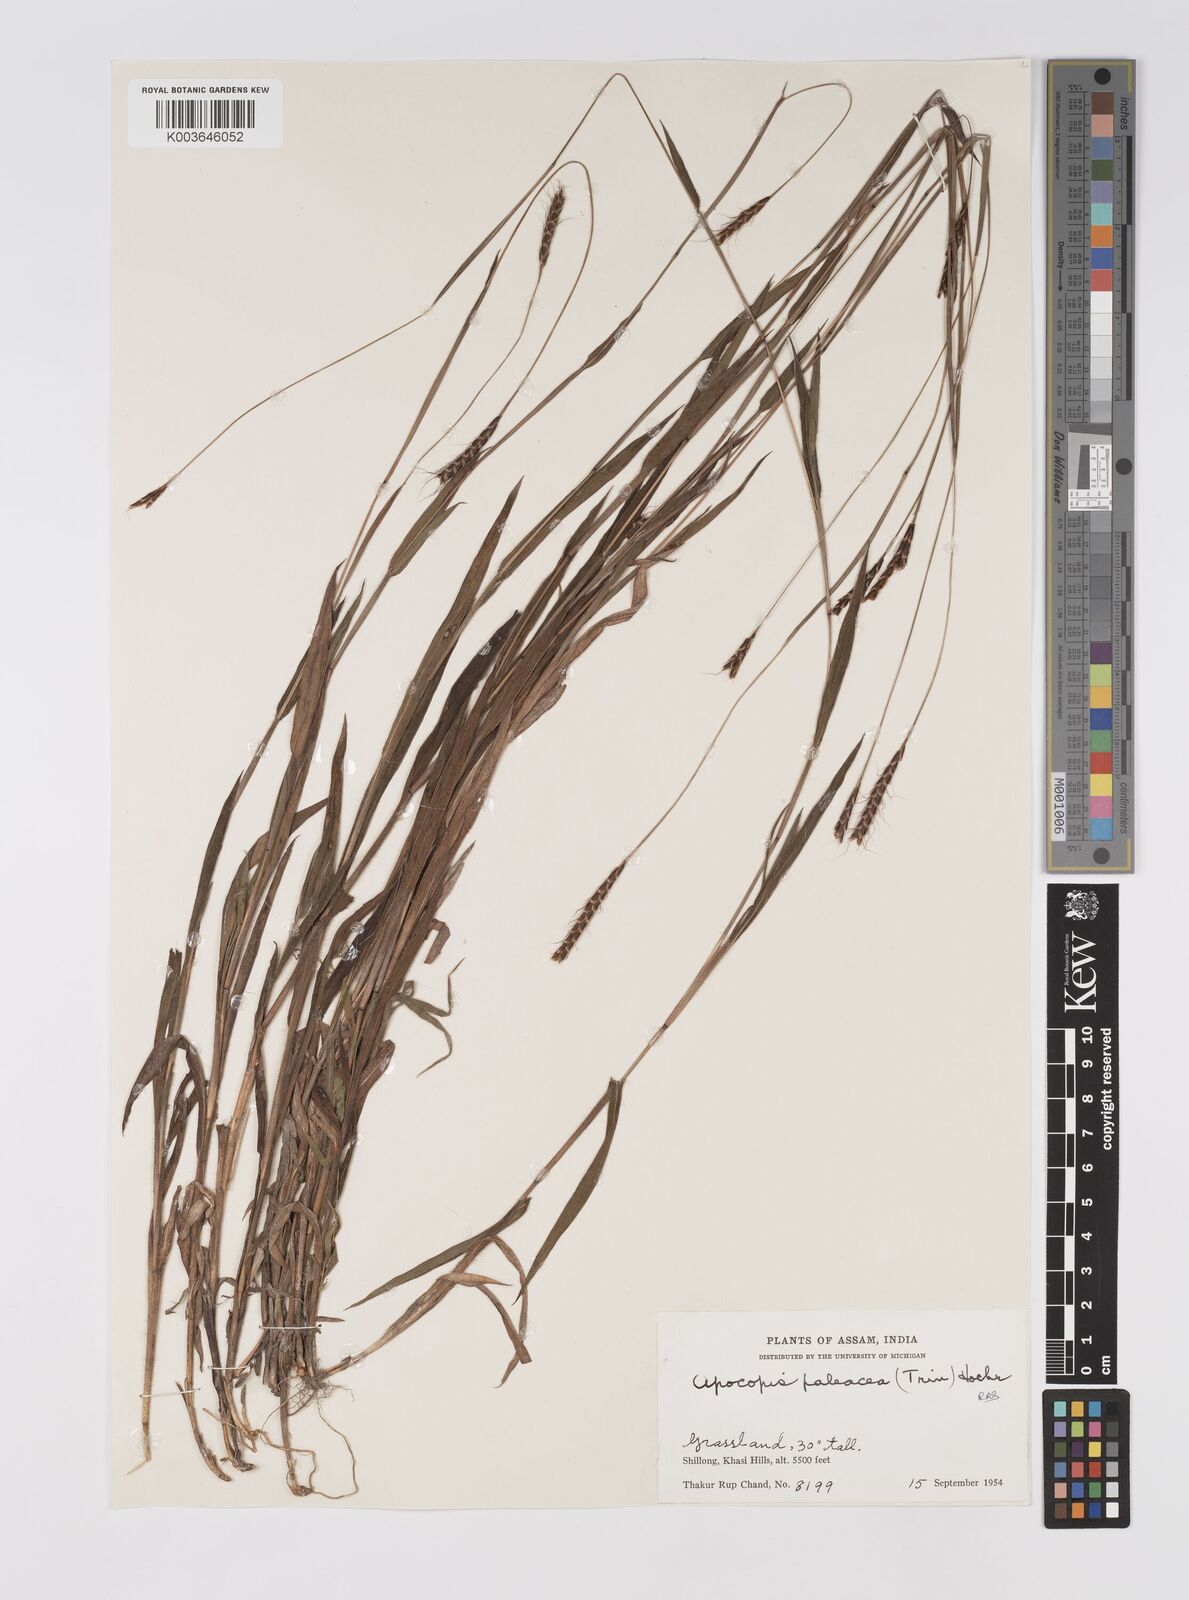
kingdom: Plantae
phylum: Tracheophyta
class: Liliopsida
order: Poales
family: Poaceae
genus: Apocopis
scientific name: Apocopis paleaceus
